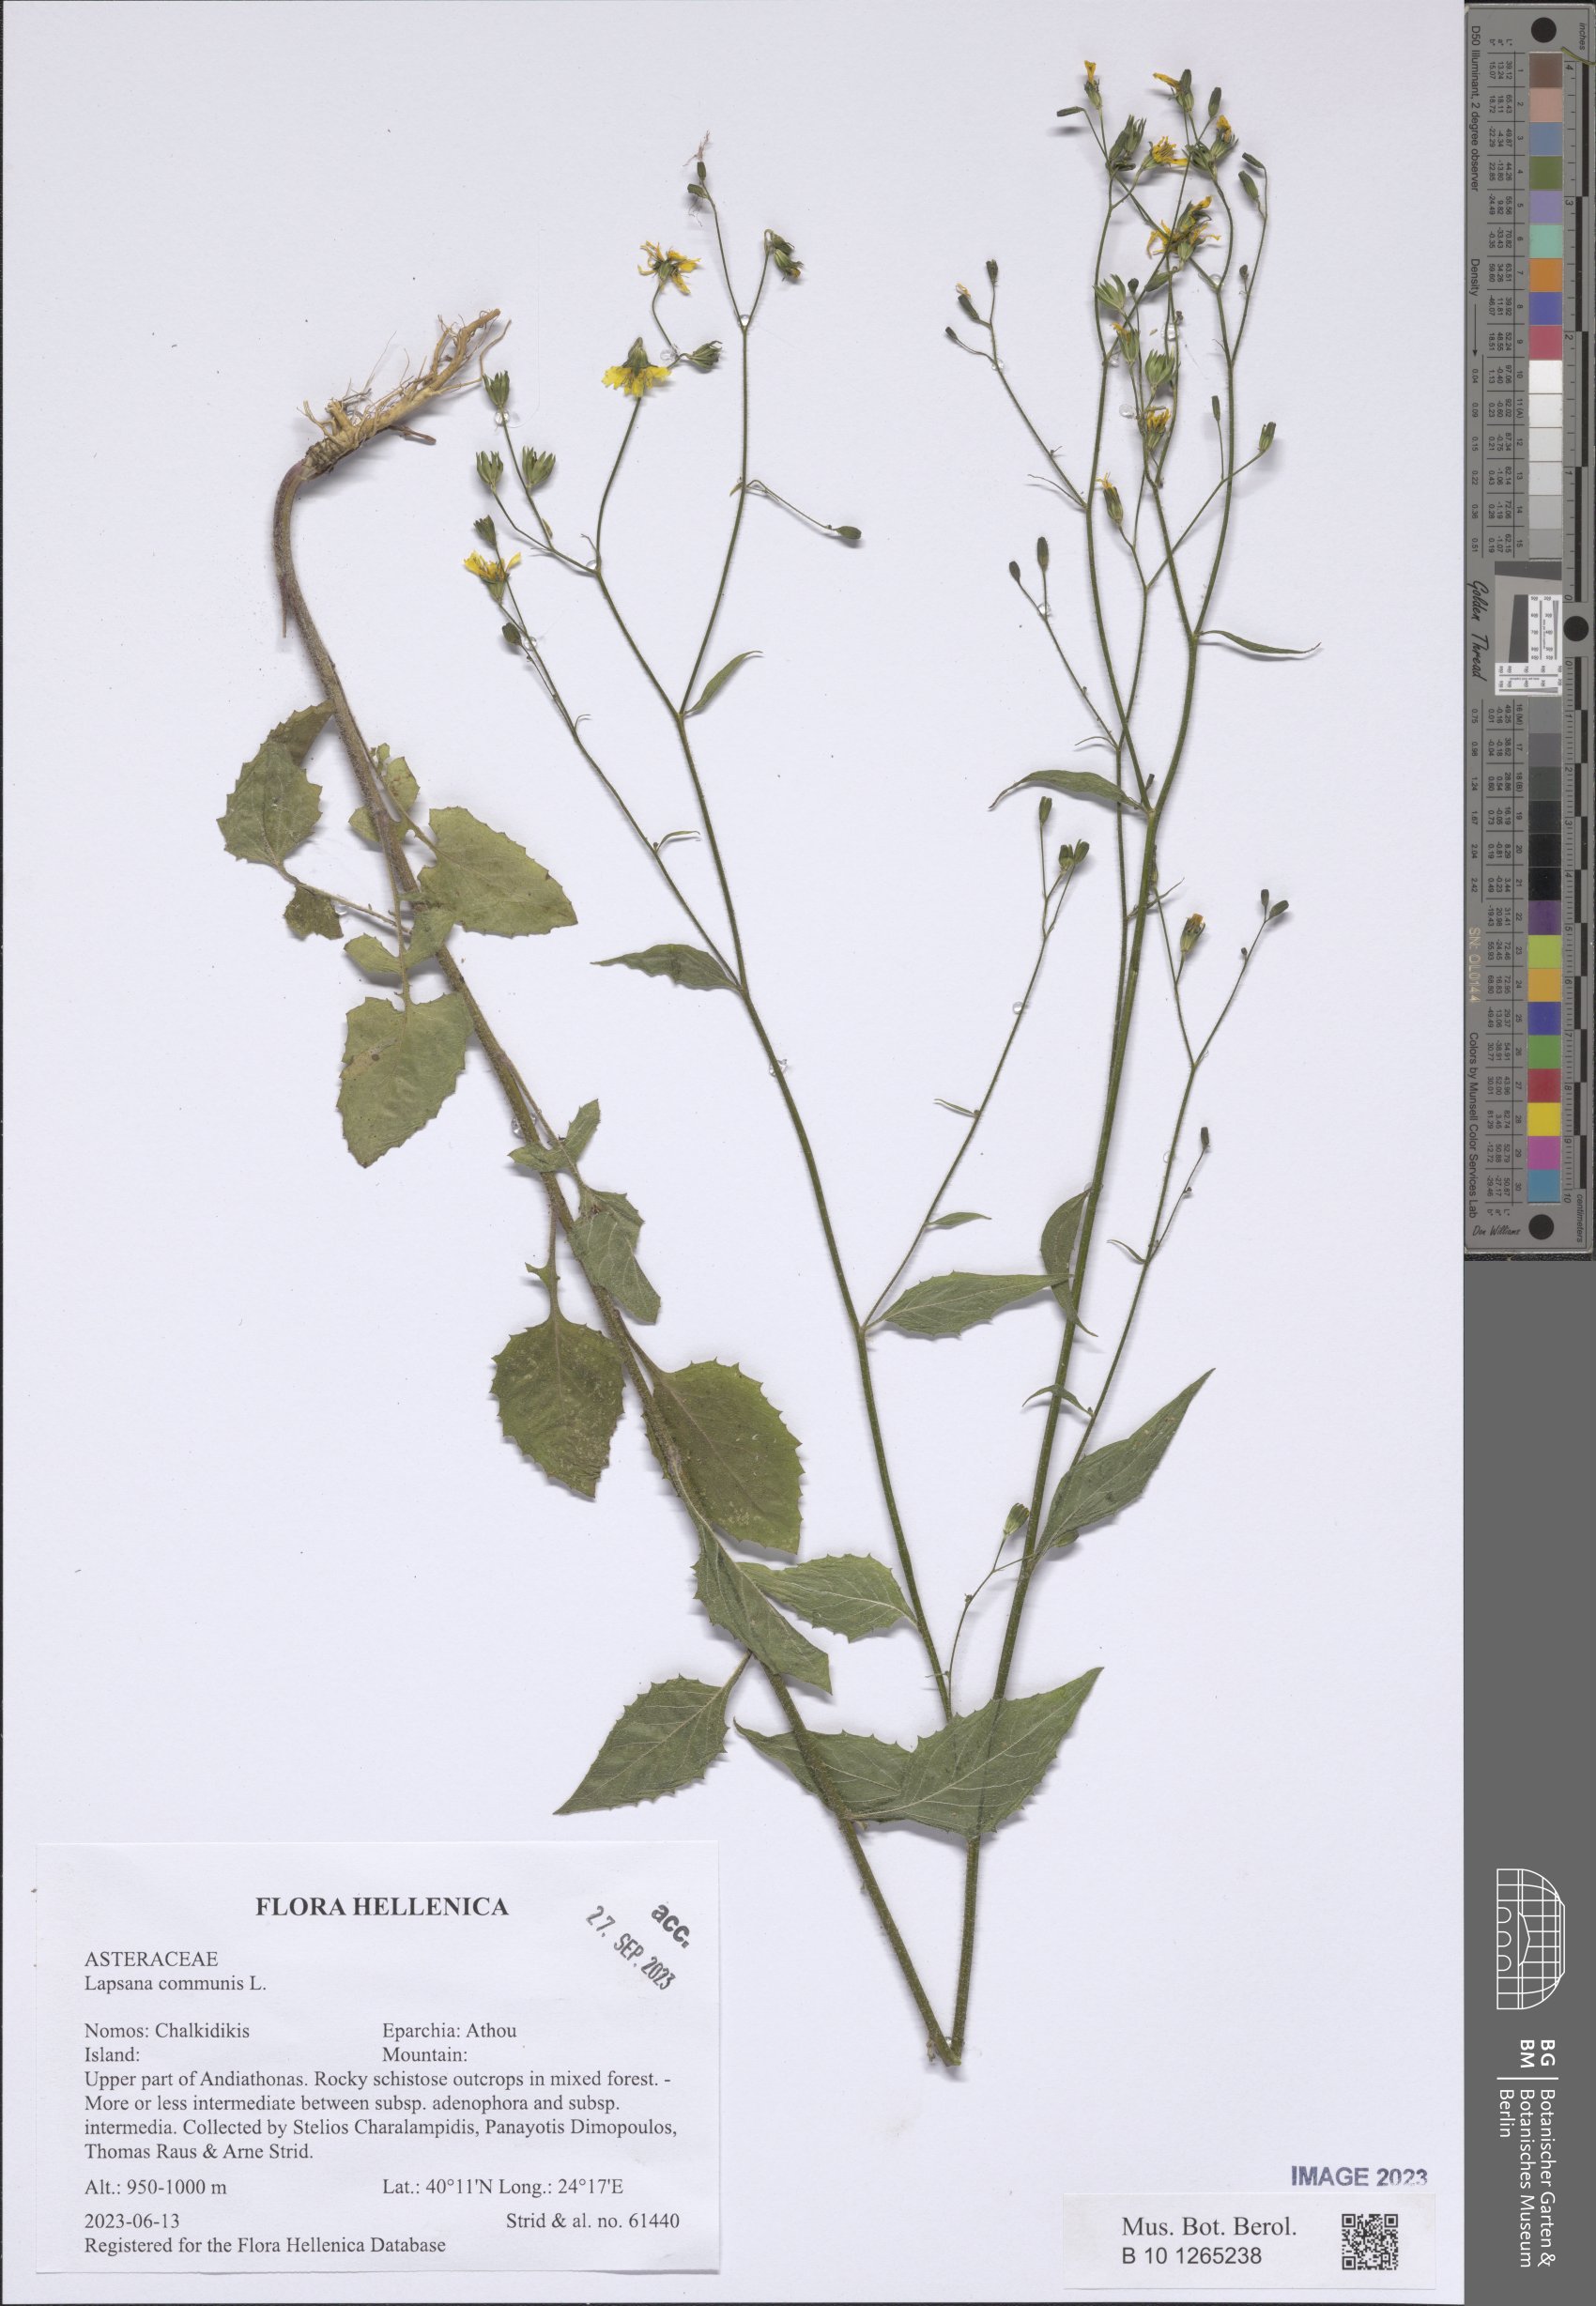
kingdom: Plantae
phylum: Tracheophyta
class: Magnoliopsida
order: Asterales
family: Asteraceae
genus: Lapsana
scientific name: Lapsana communis
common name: Nipplewort
